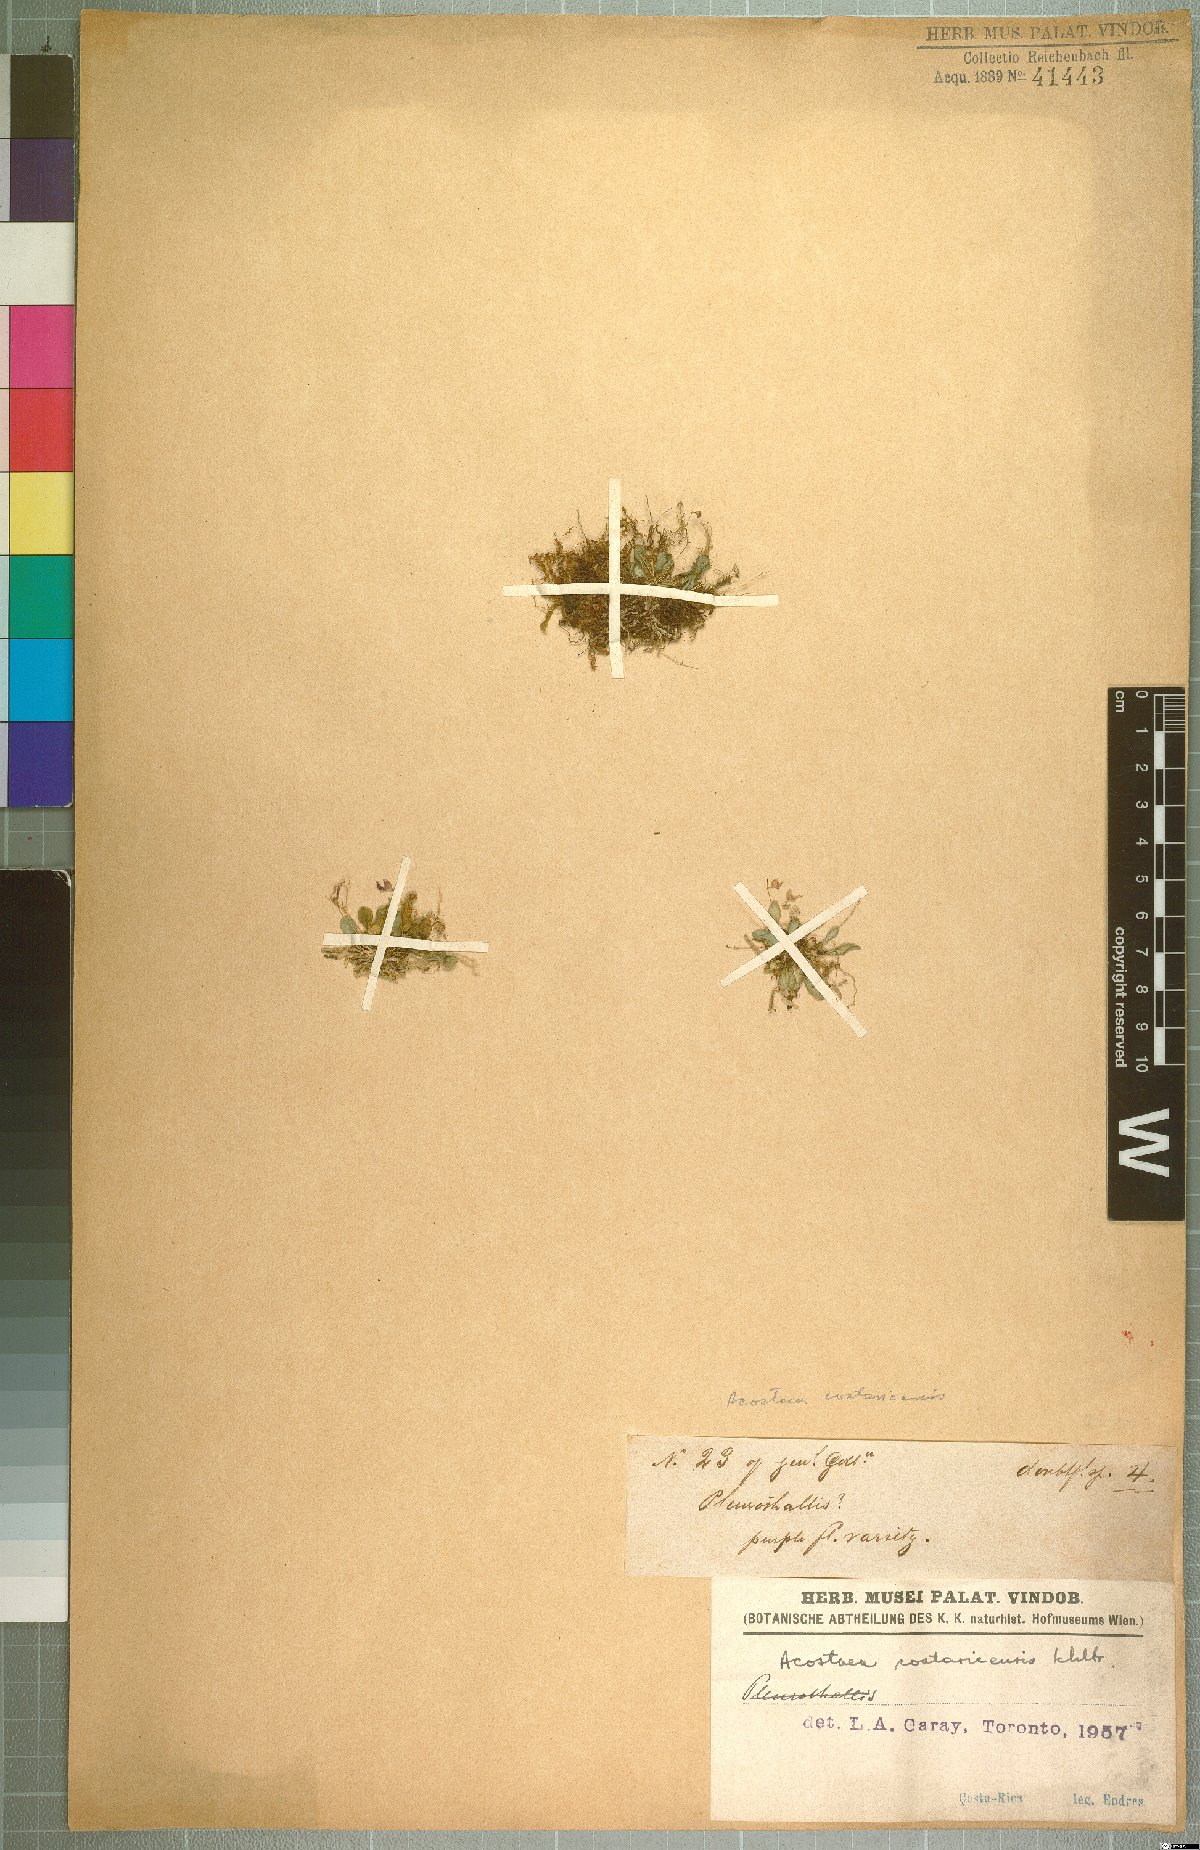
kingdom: Plantae
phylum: Tracheophyta
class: Liliopsida
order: Asparagales
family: Orchidaceae
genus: Specklinia
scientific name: Specklinia colombiana
